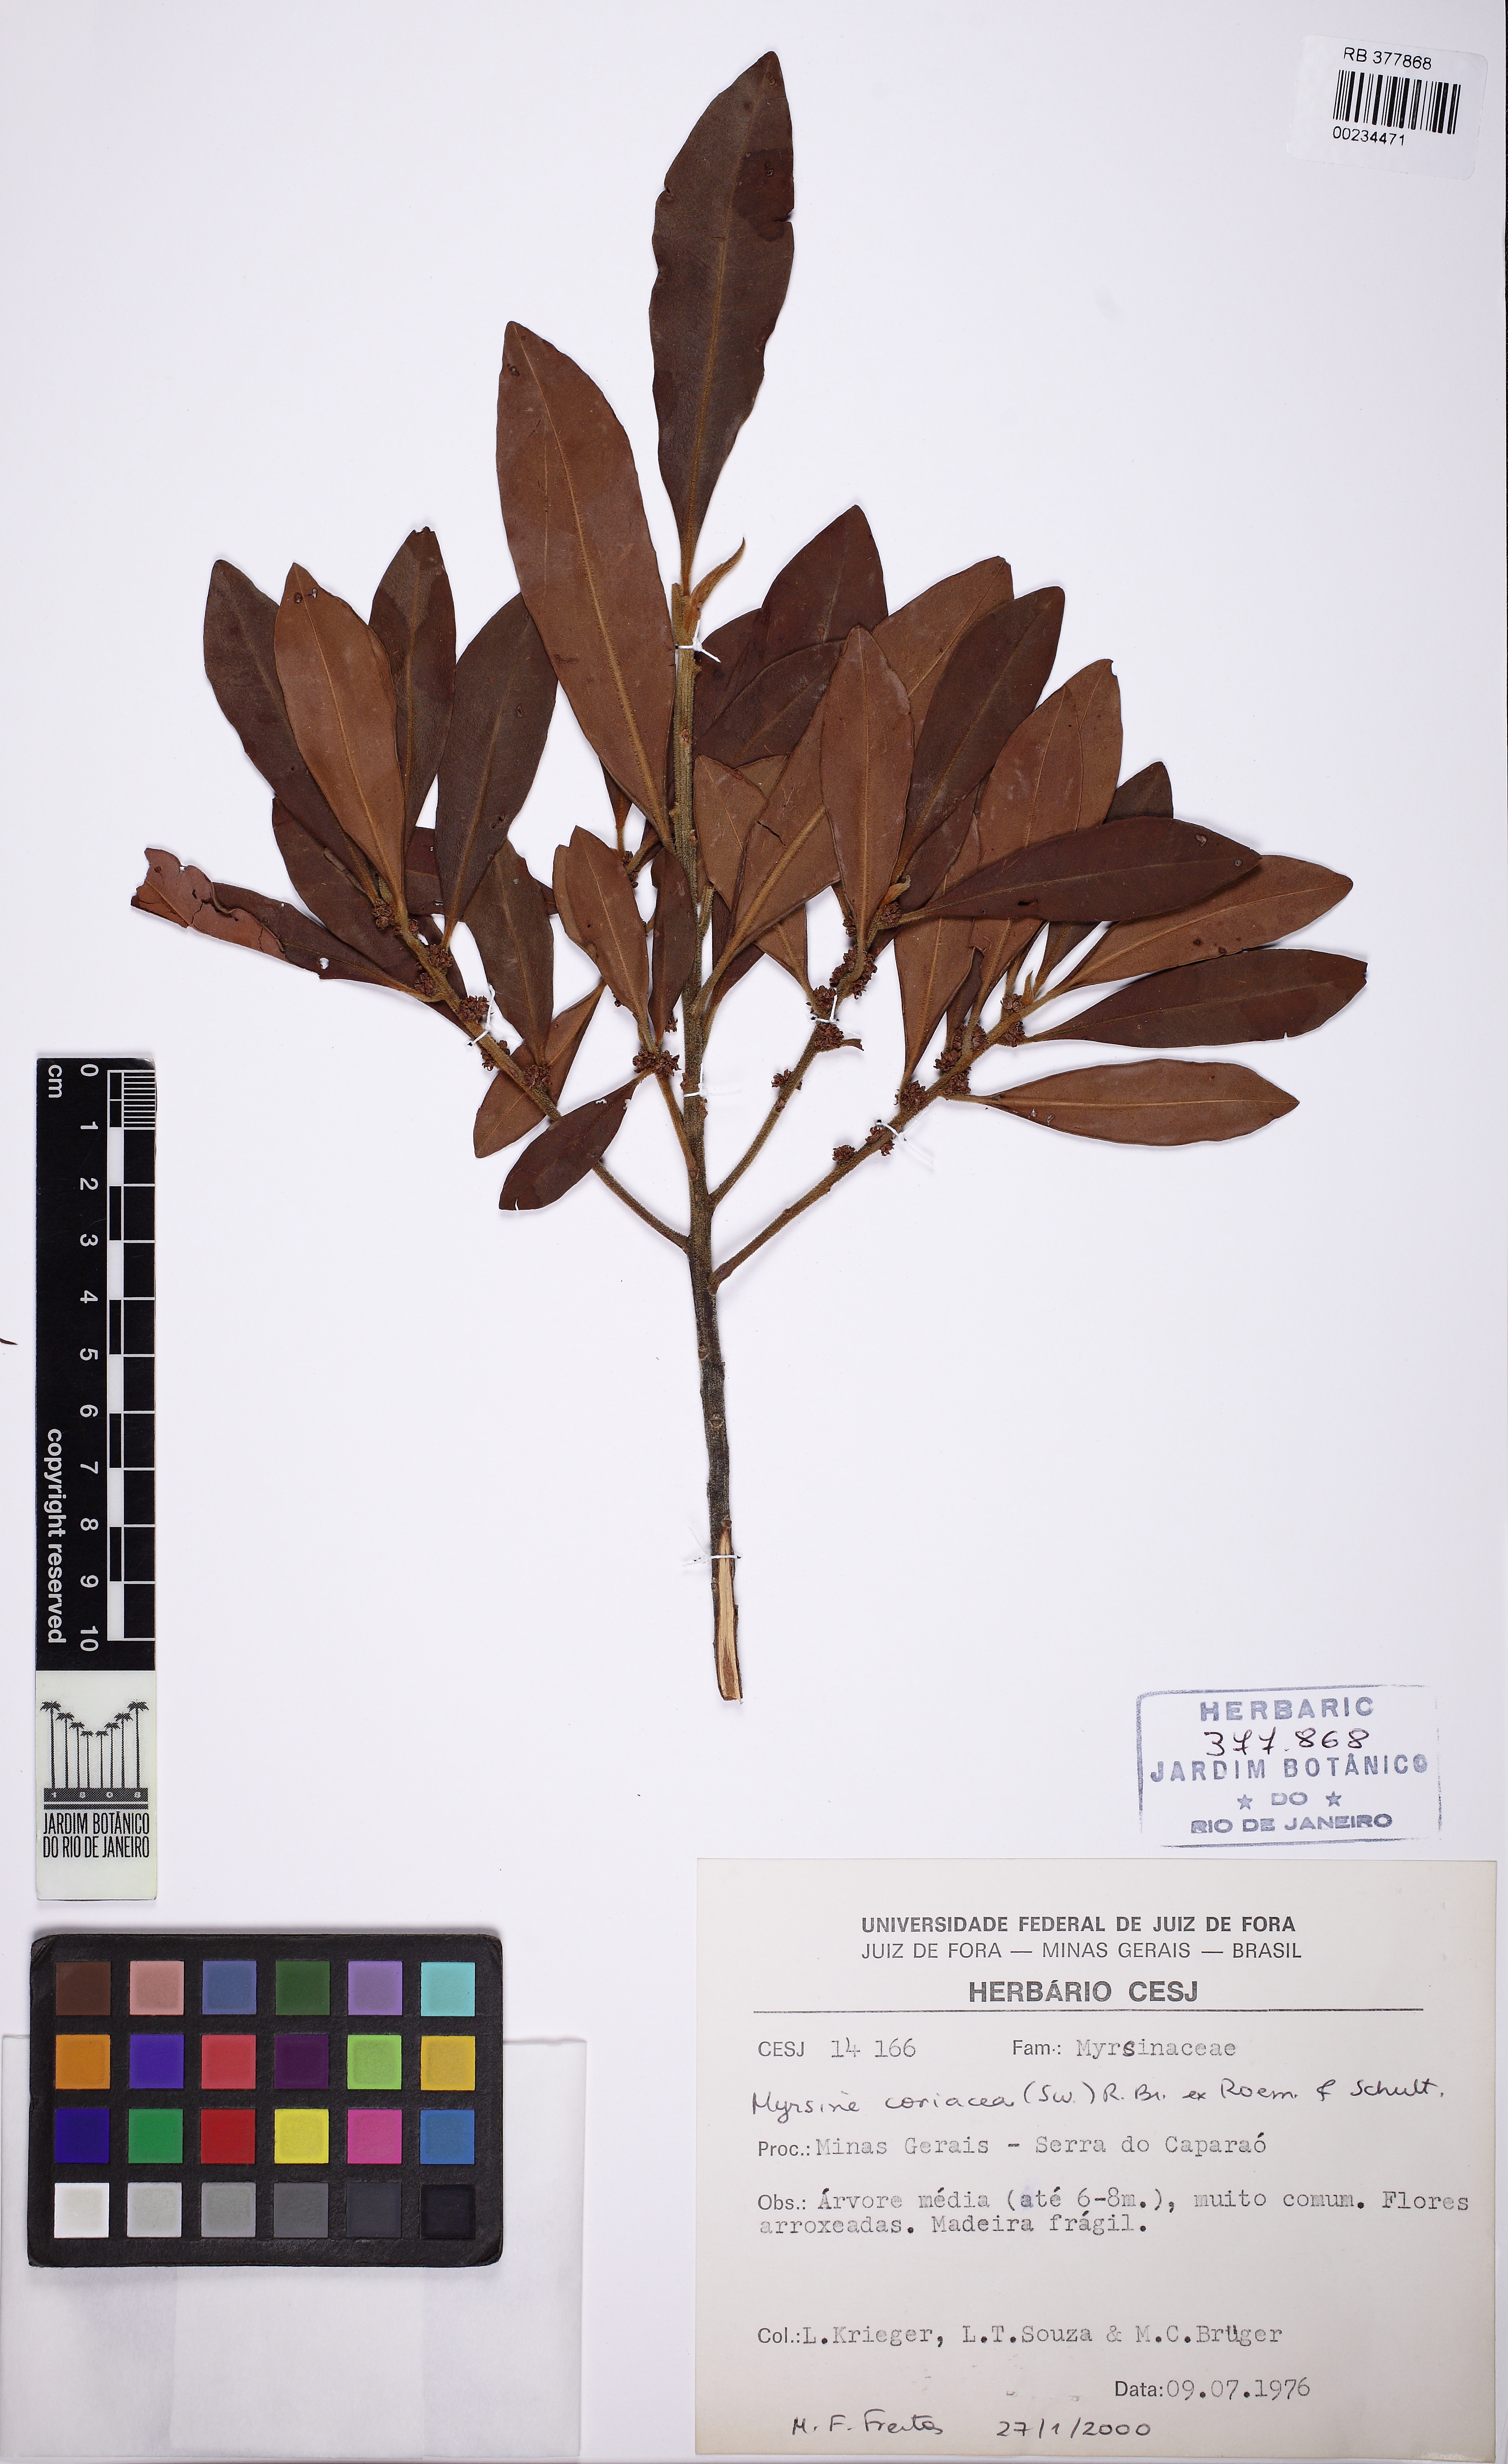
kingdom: Plantae
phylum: Tracheophyta
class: Magnoliopsida
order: Ericales
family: Primulaceae
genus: Myrsine
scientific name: Myrsine coriacea
